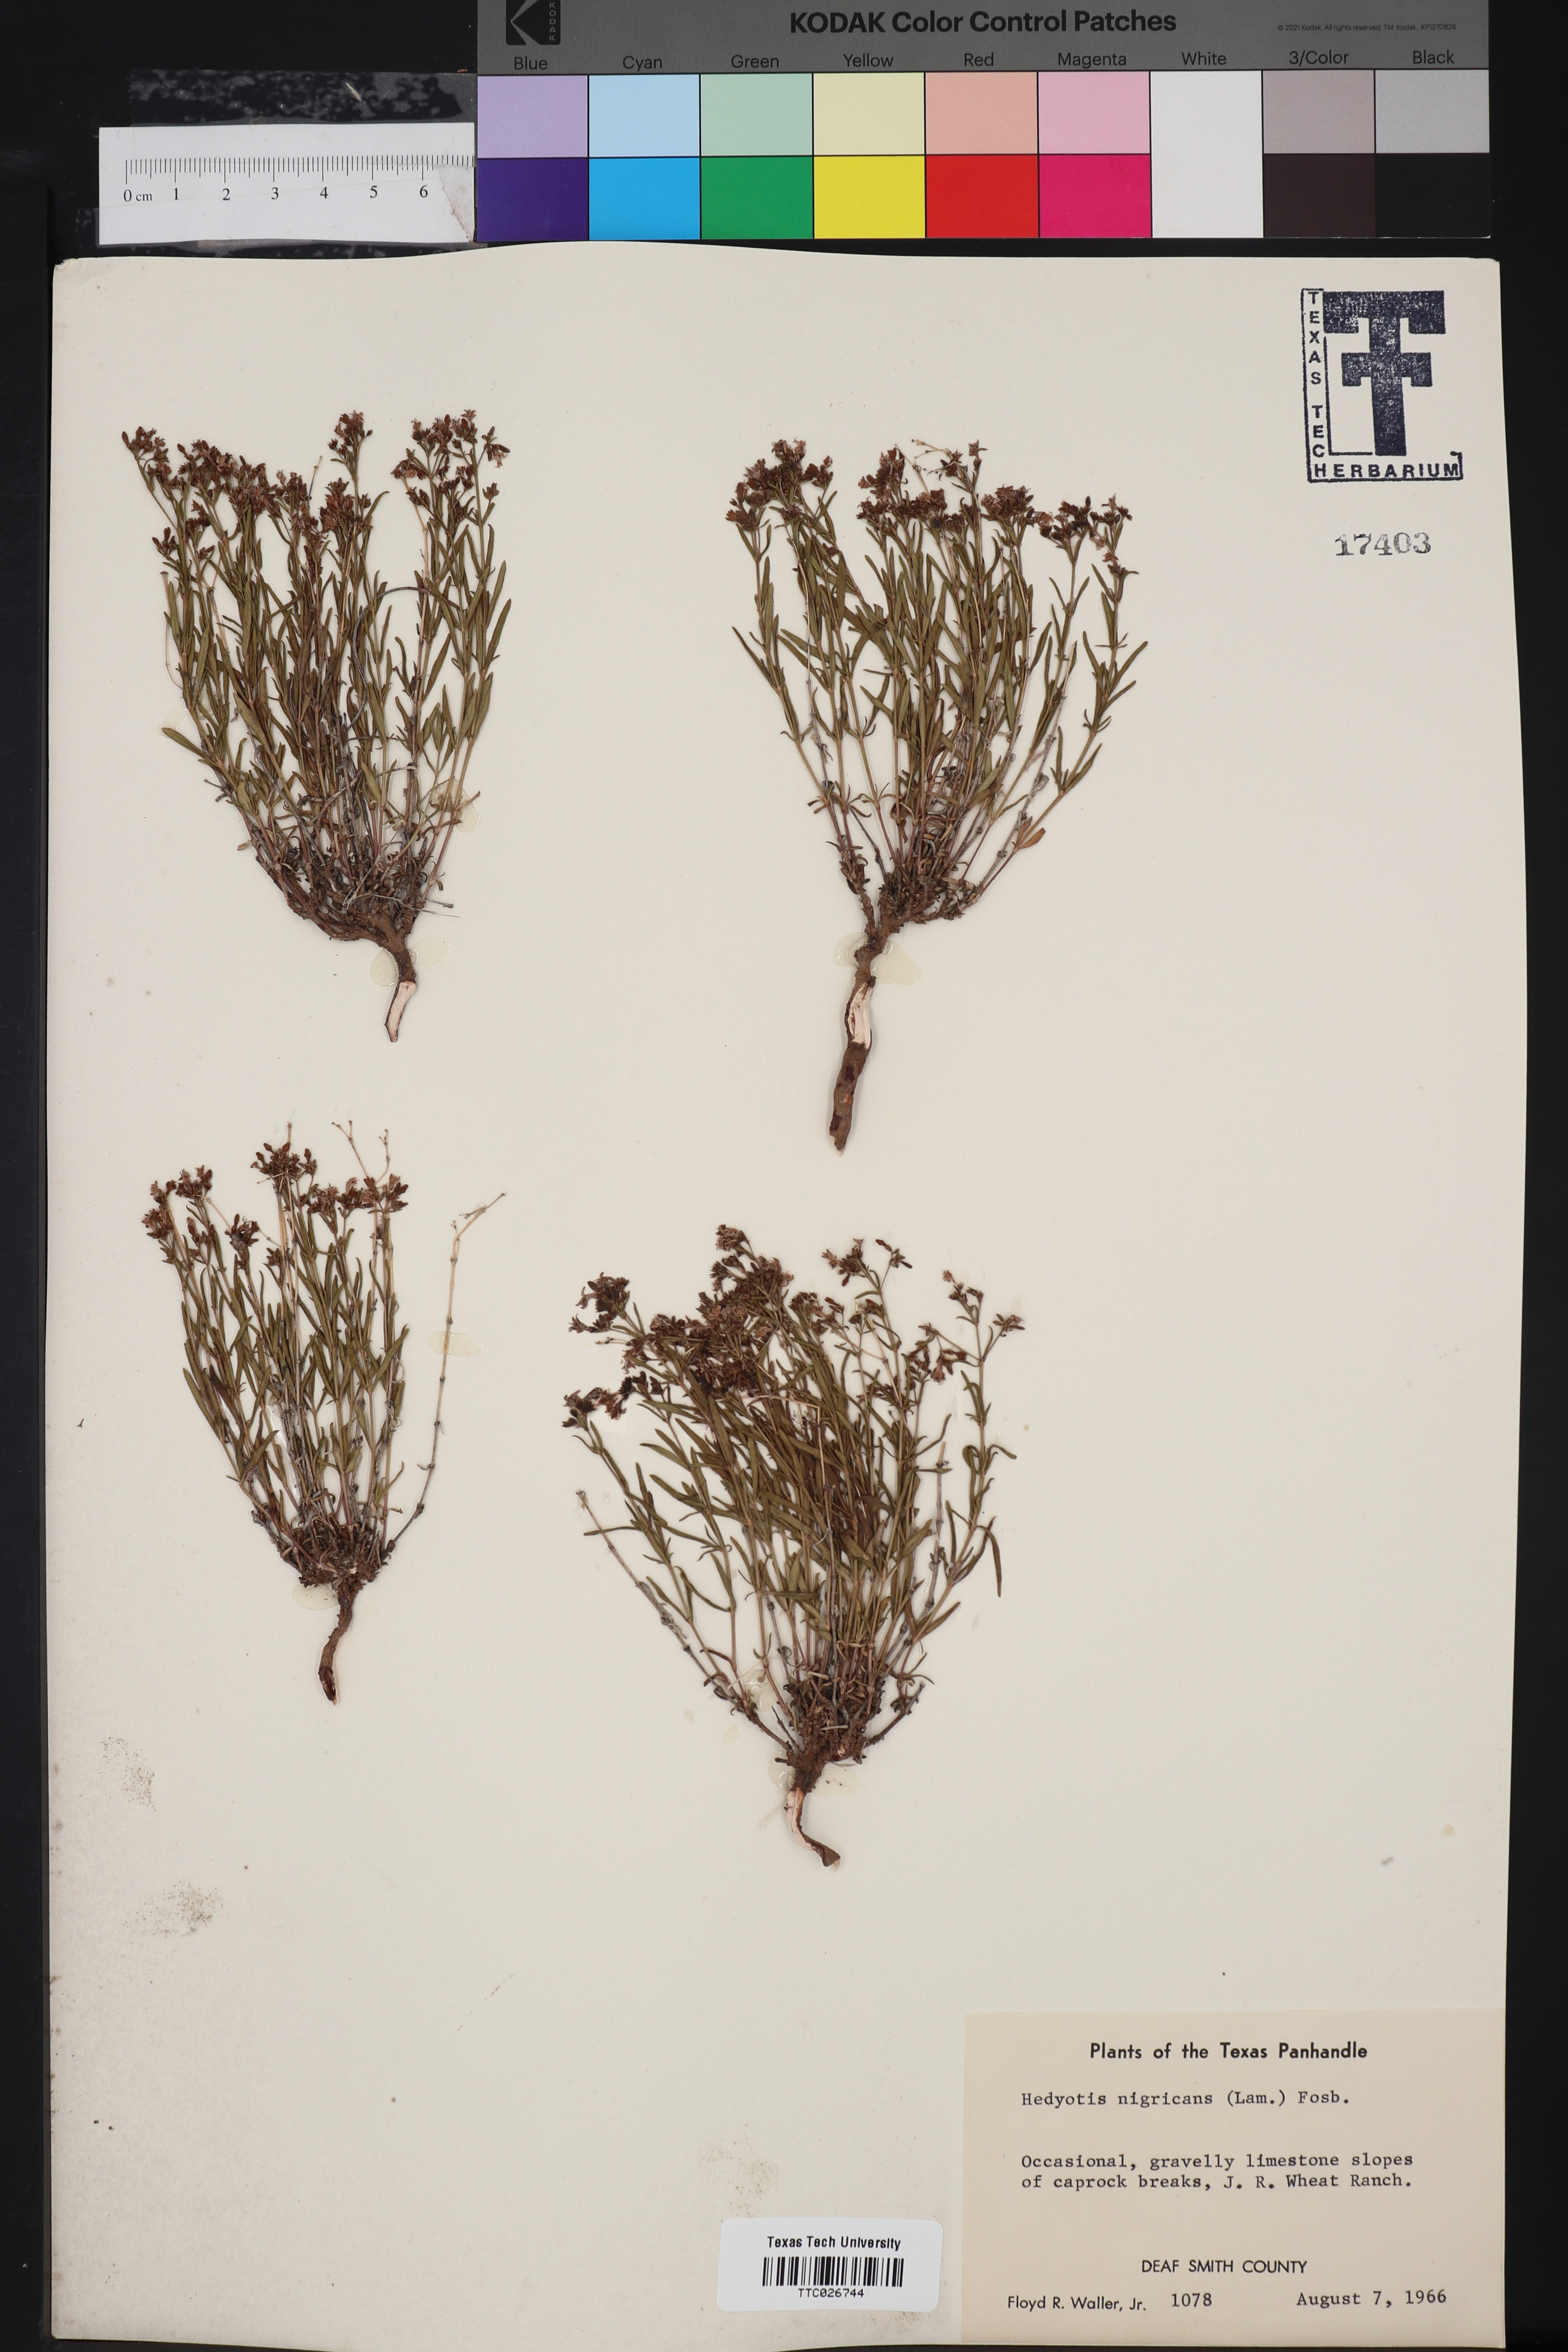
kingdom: Plantae
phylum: Tracheophyta
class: Magnoliopsida
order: Gentianales
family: Rubiaceae
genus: Stenaria
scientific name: Stenaria nigricans
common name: Diamondflowers
